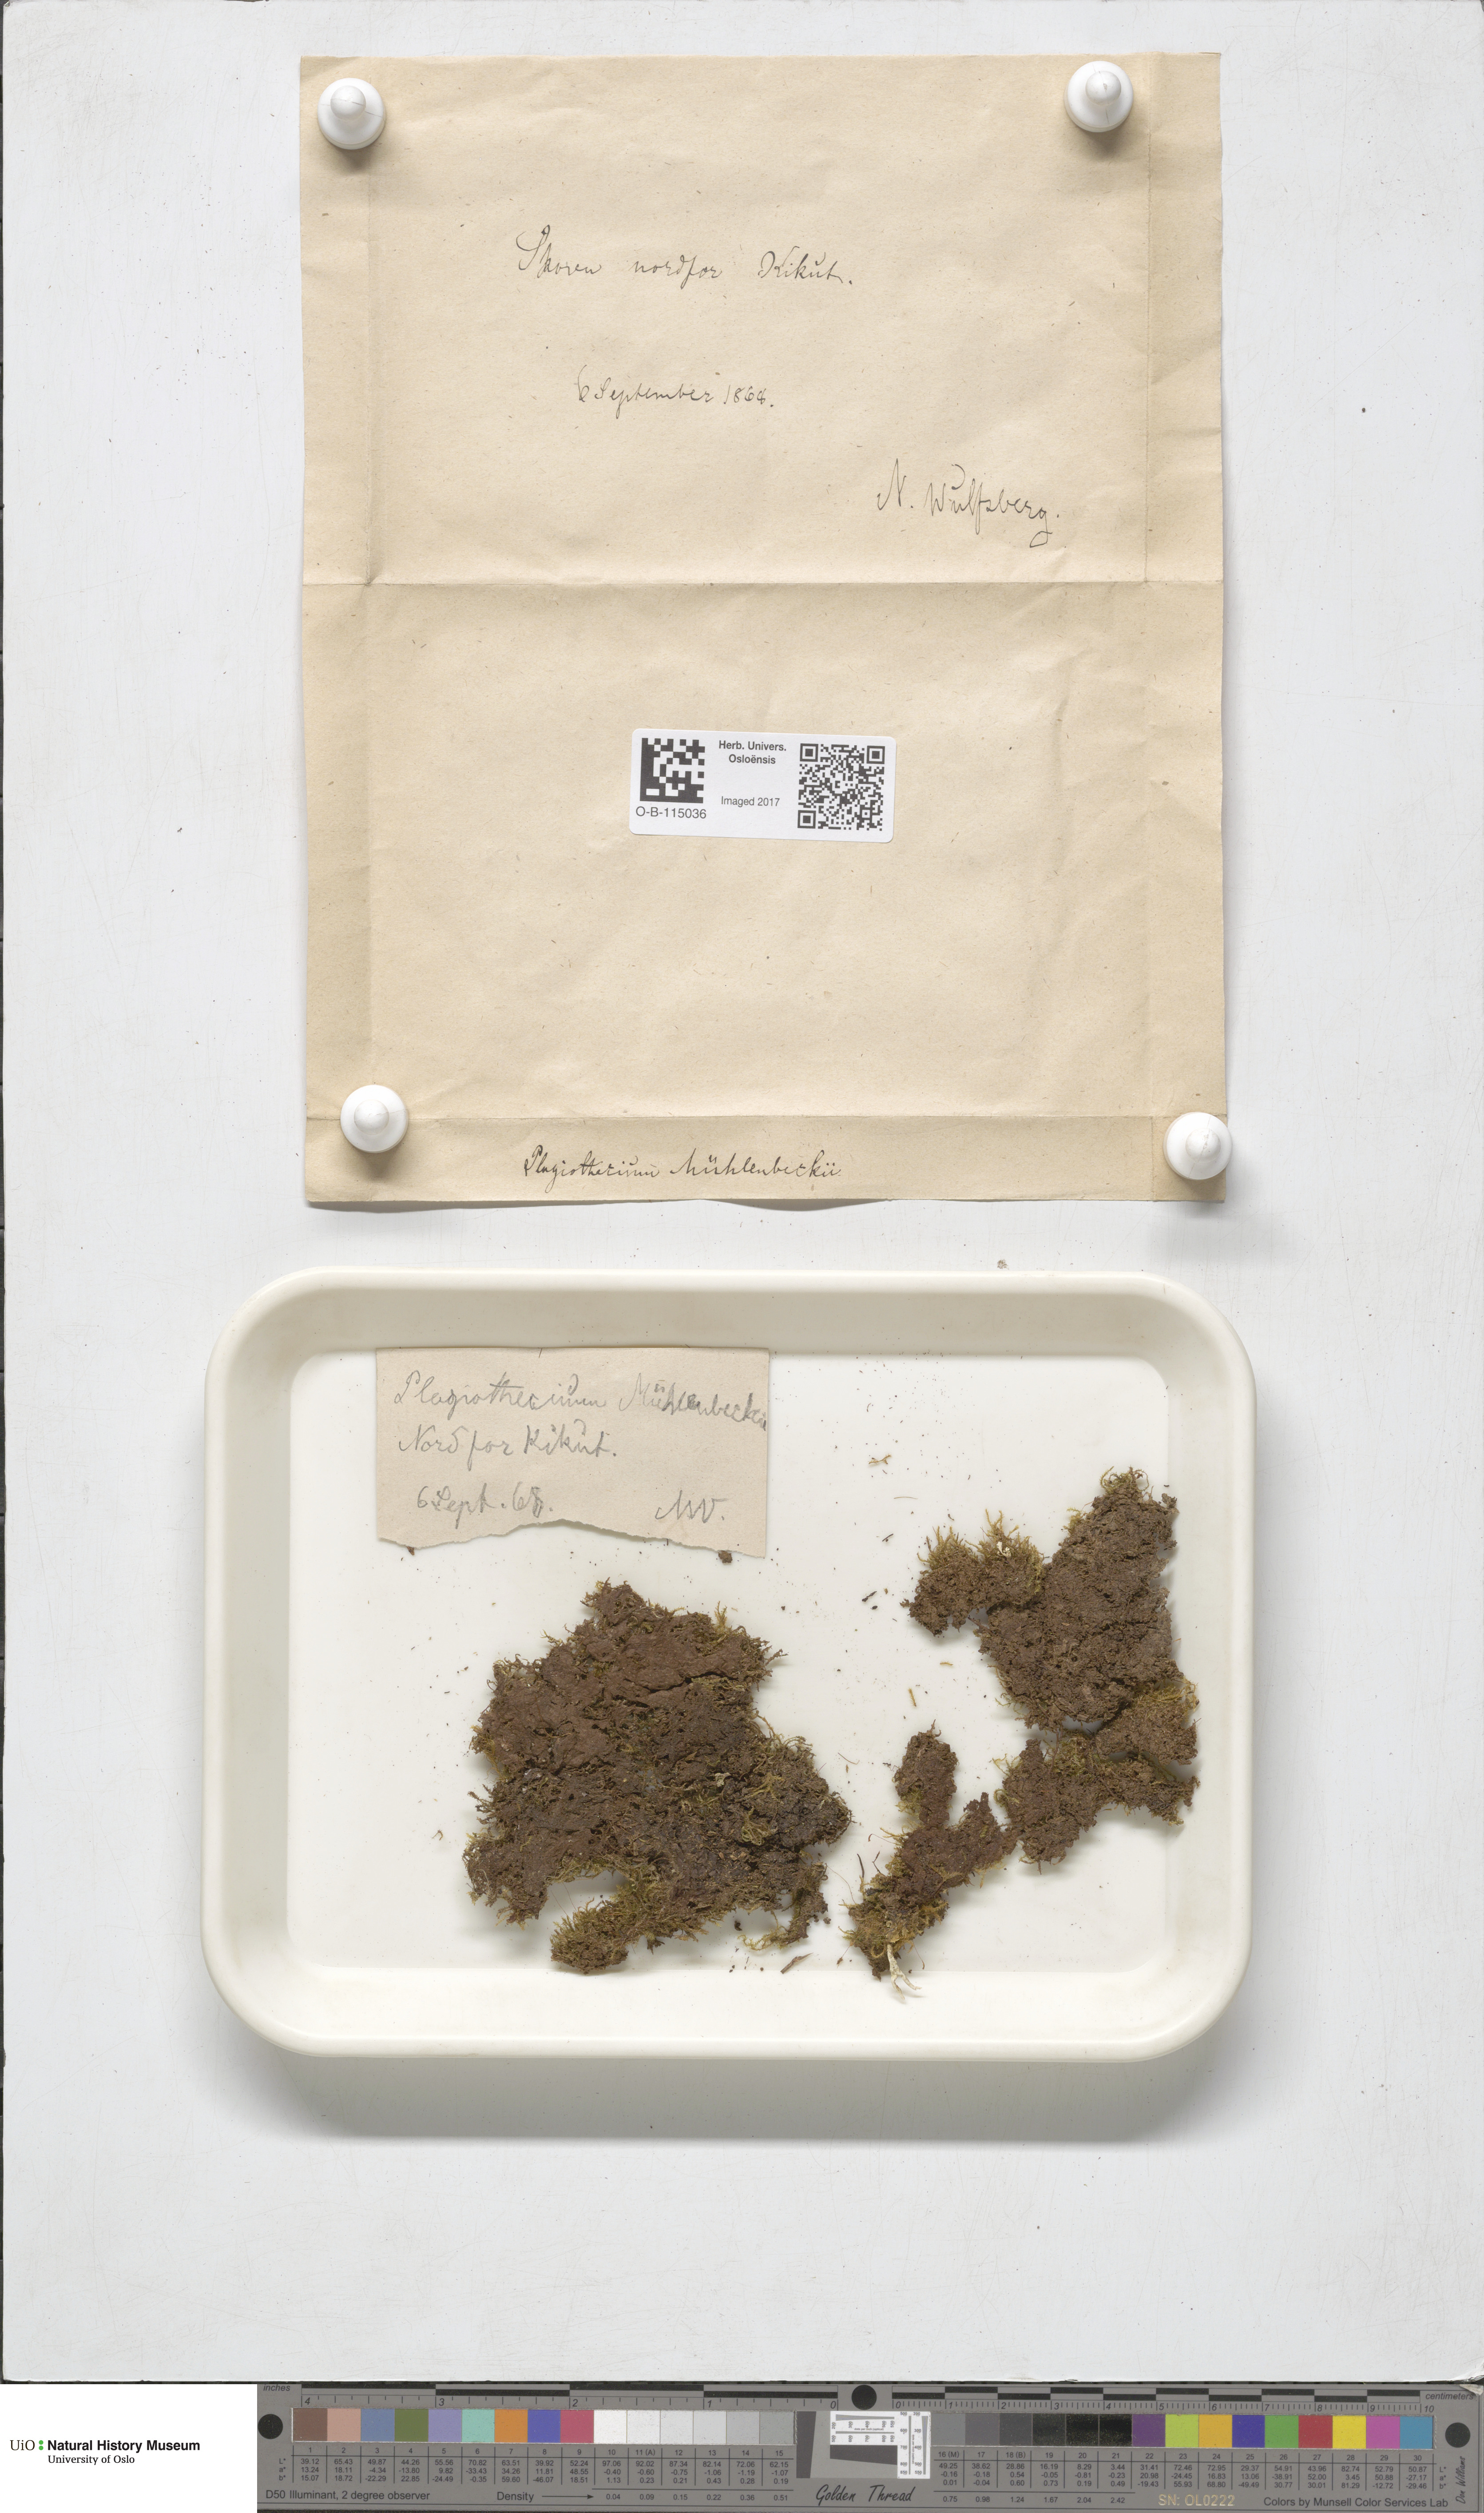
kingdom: Plantae
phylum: Bryophyta
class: Bryopsida
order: Hypnales
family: Plagiotheciaceae
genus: Herzogiella
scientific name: Herzogiella striatella
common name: Muhlenbeck's feather-moss
